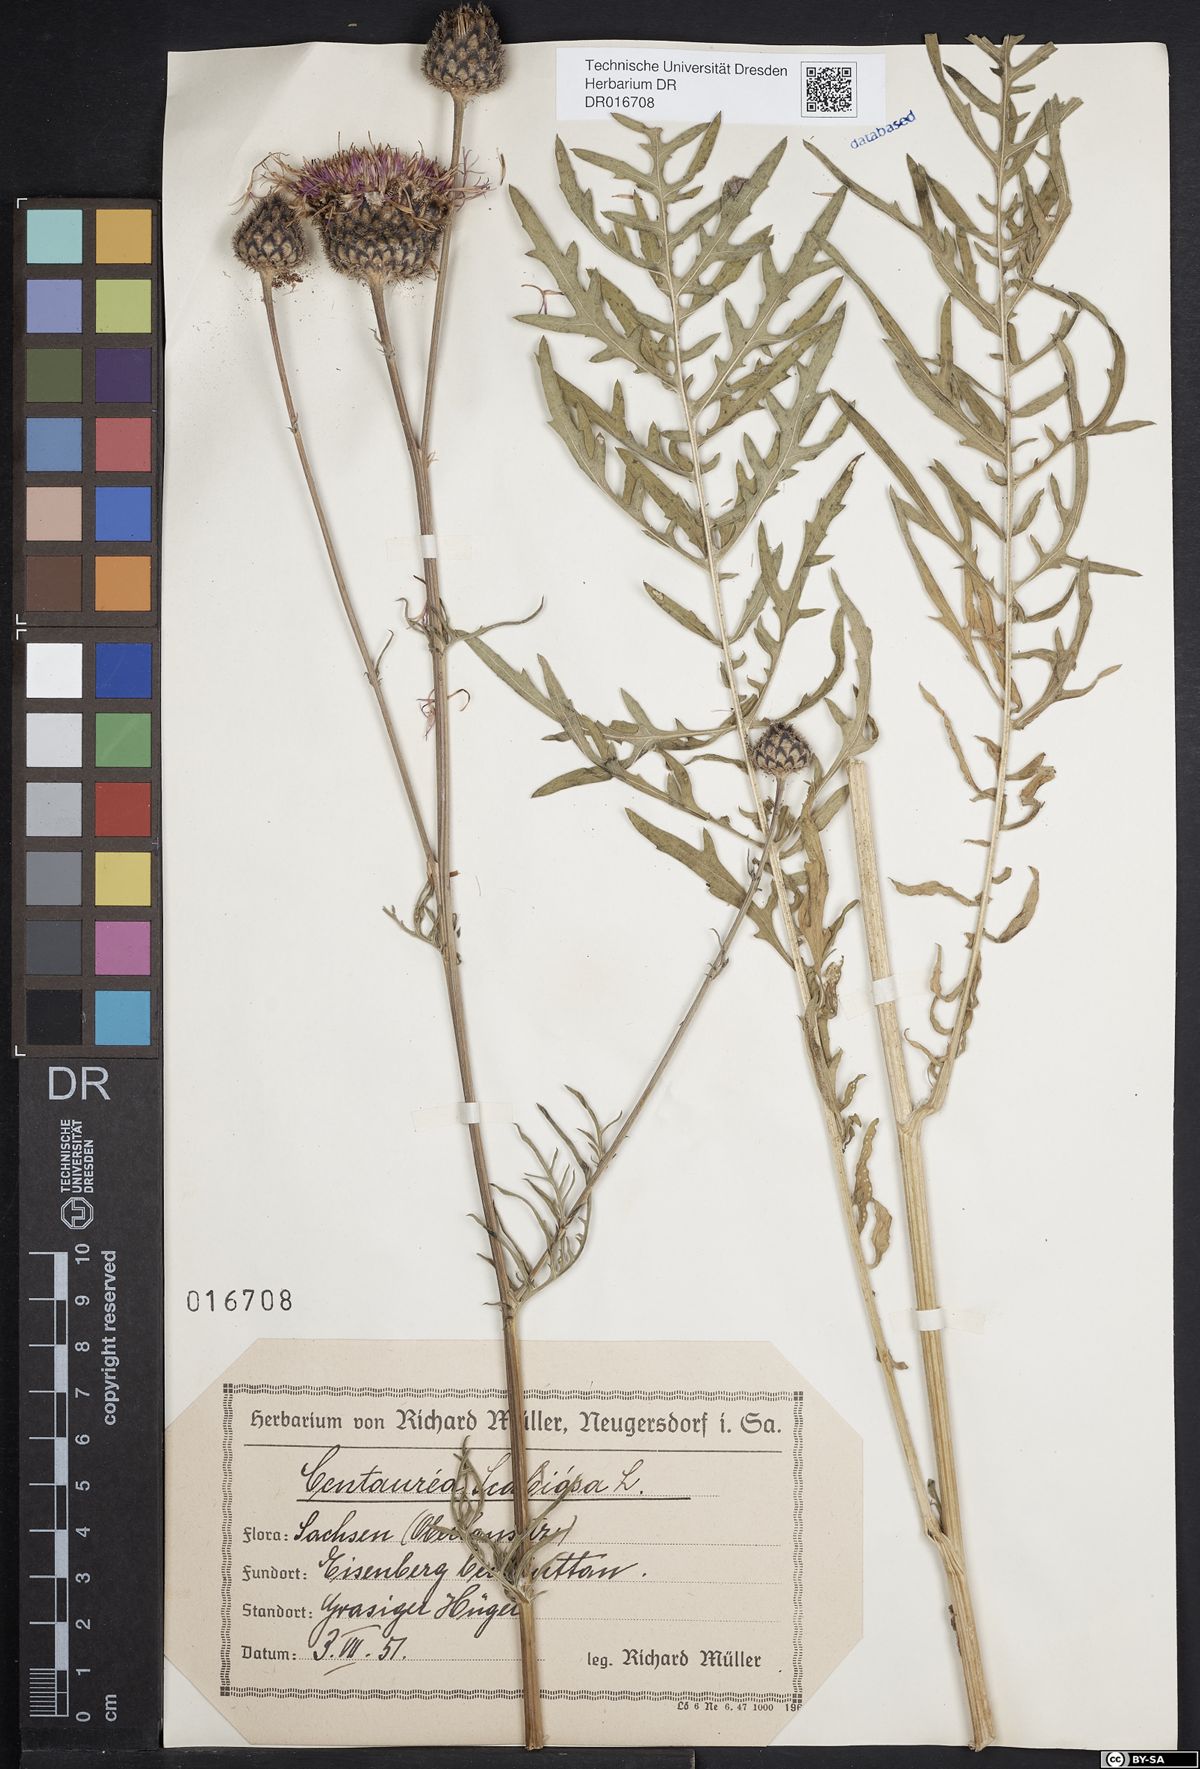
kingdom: Plantae
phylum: Tracheophyta
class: Magnoliopsida
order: Asterales
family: Asteraceae
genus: Centaurea
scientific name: Centaurea scabiosa
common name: Greater knapweed
